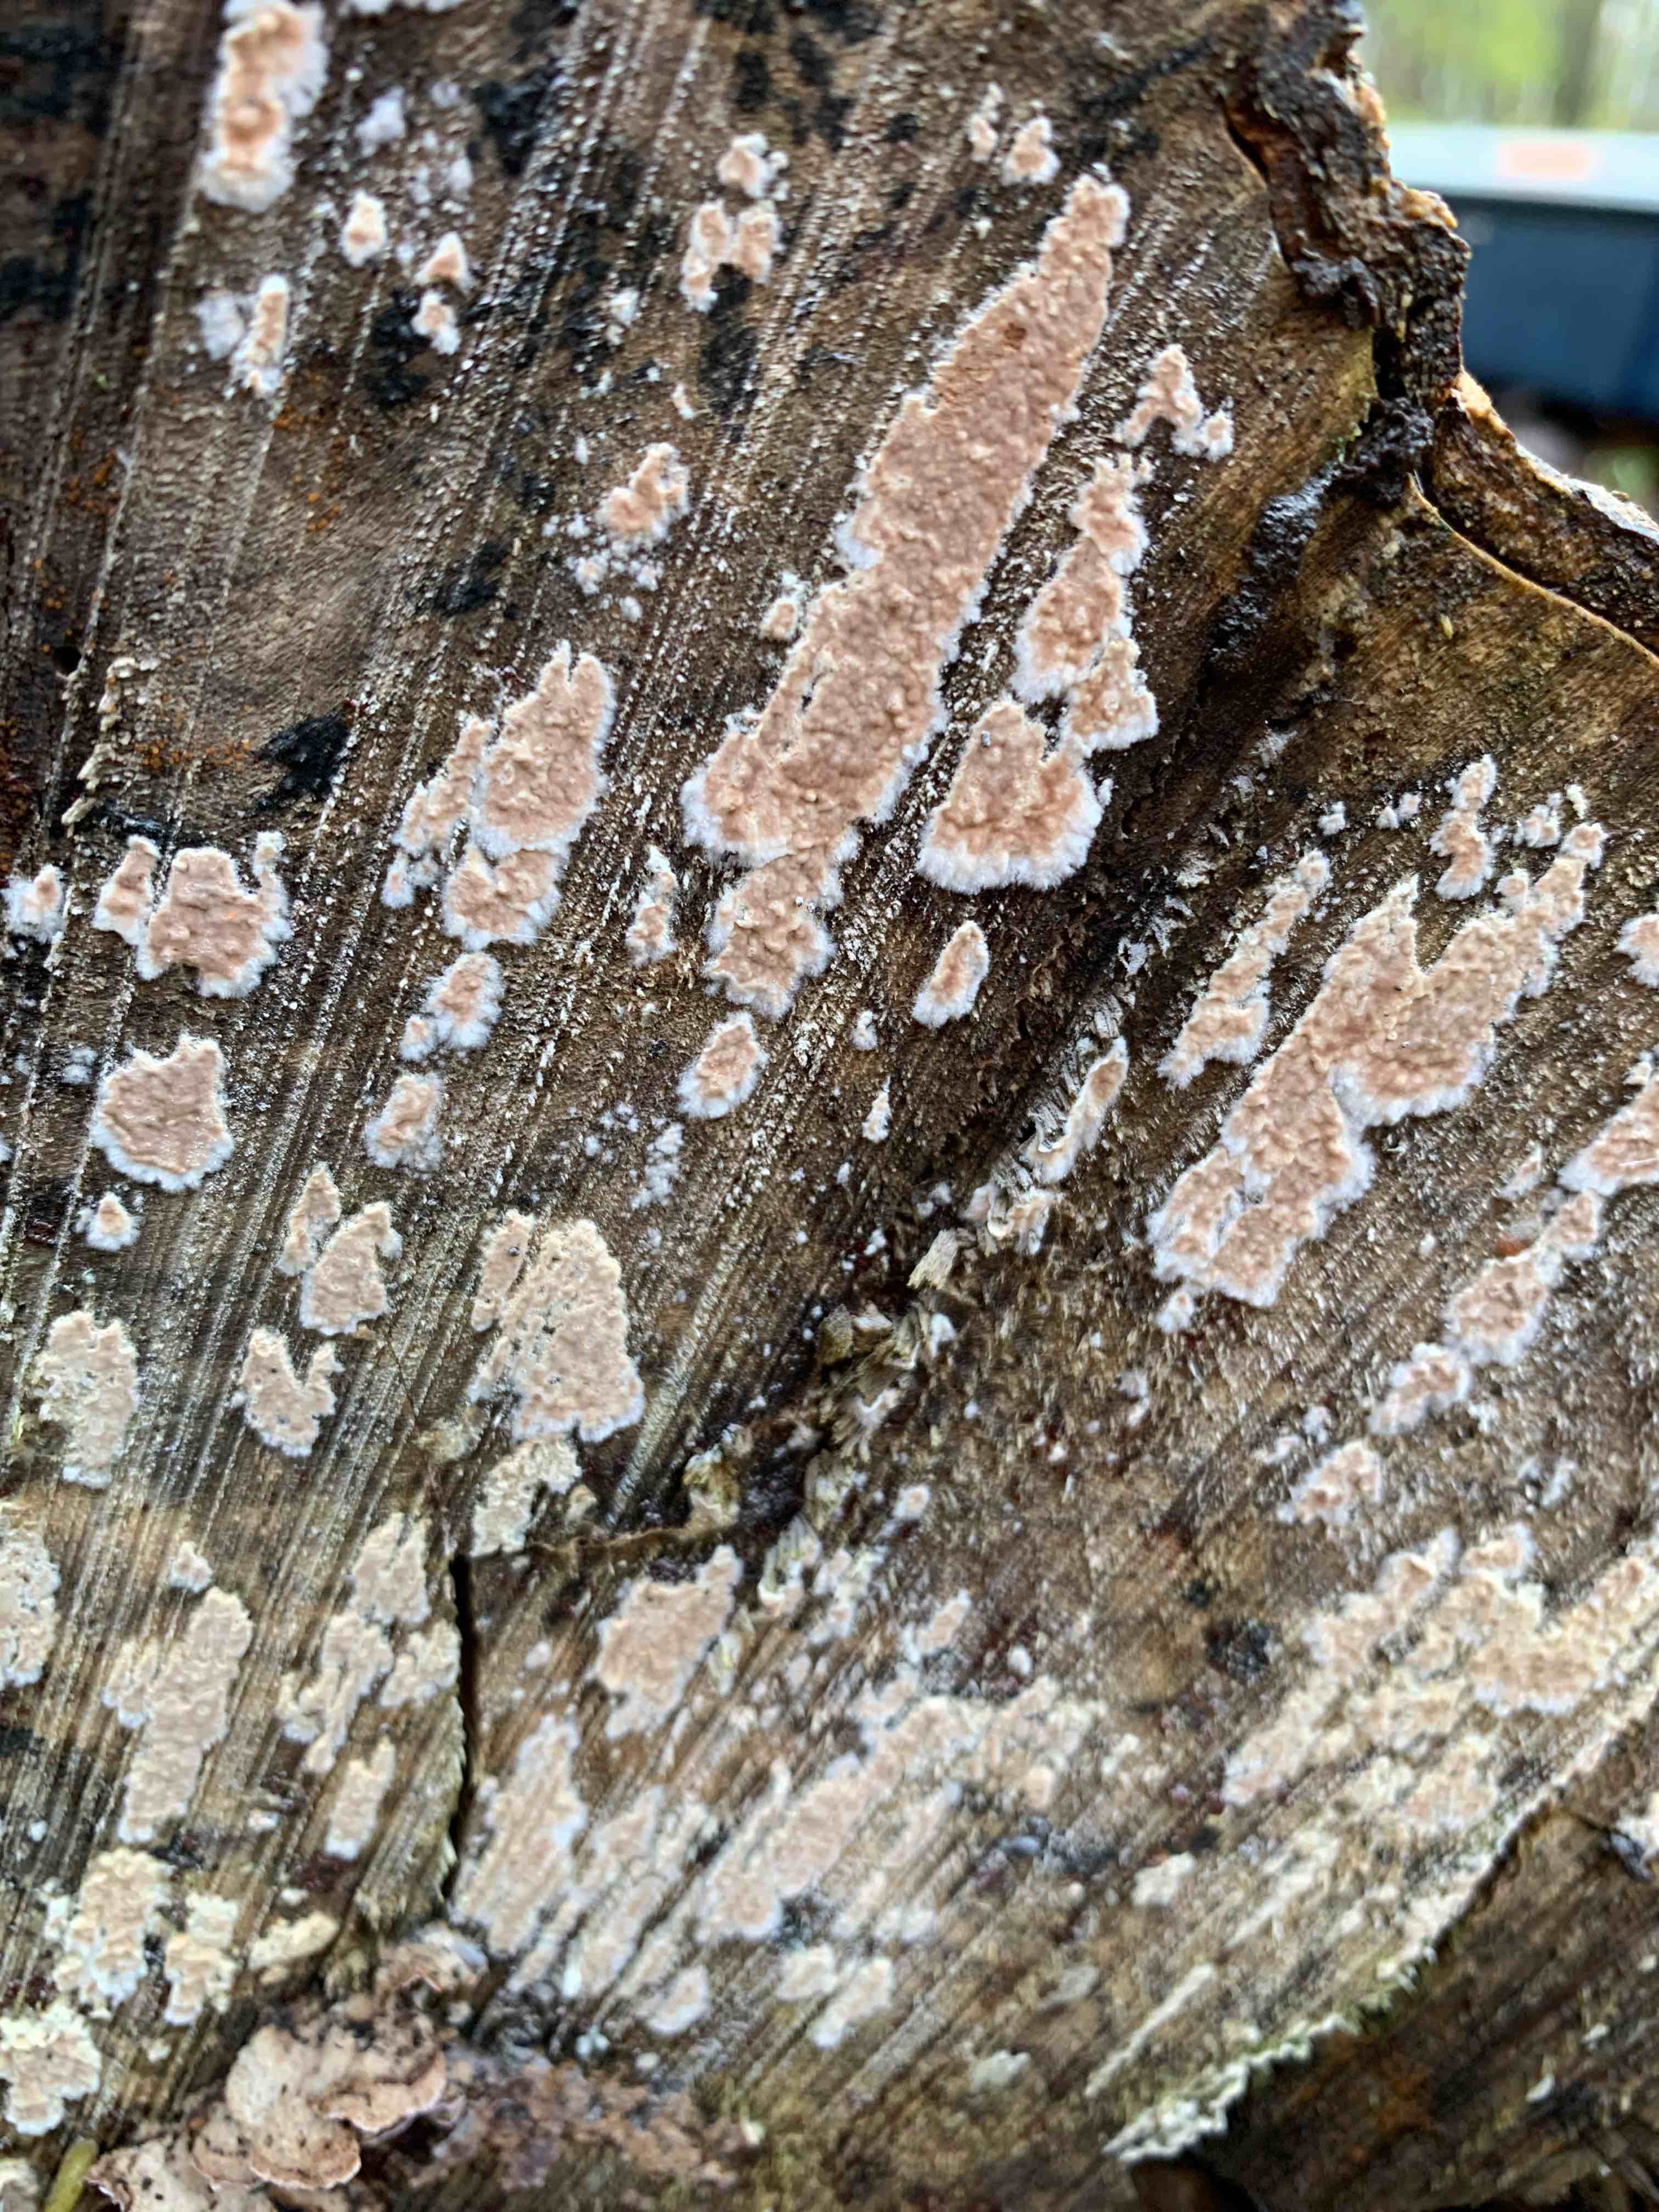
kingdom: Fungi
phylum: Basidiomycota
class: Agaricomycetes
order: Agaricales
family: Physalacriaceae
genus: Cylindrobasidium
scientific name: Cylindrobasidium evolvens
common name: sprækkehinde
